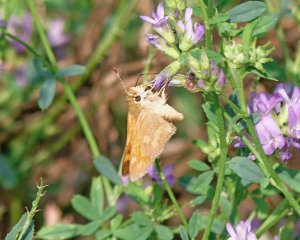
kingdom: Animalia
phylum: Arthropoda
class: Insecta
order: Lepidoptera
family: Hesperiidae
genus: Ochlodes
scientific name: Ochlodes sylvanoides
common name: Woodland Skipper
